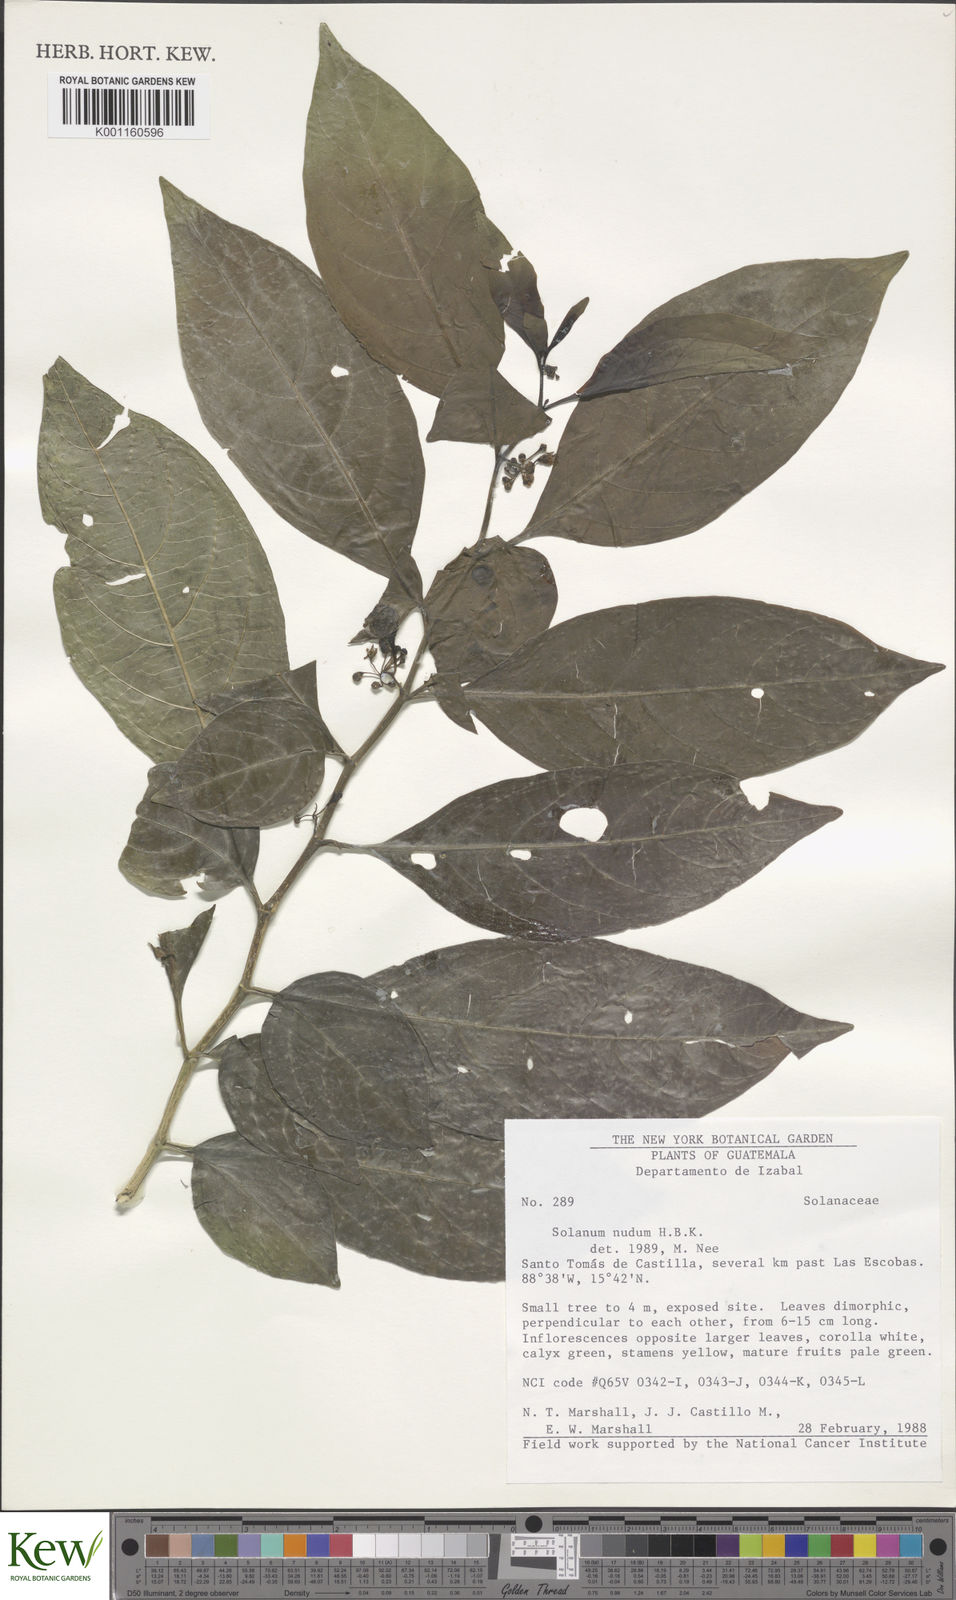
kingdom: Plantae
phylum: Tracheophyta
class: Magnoliopsida
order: Solanales
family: Solanaceae
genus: Solanum
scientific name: Solanum nudum
